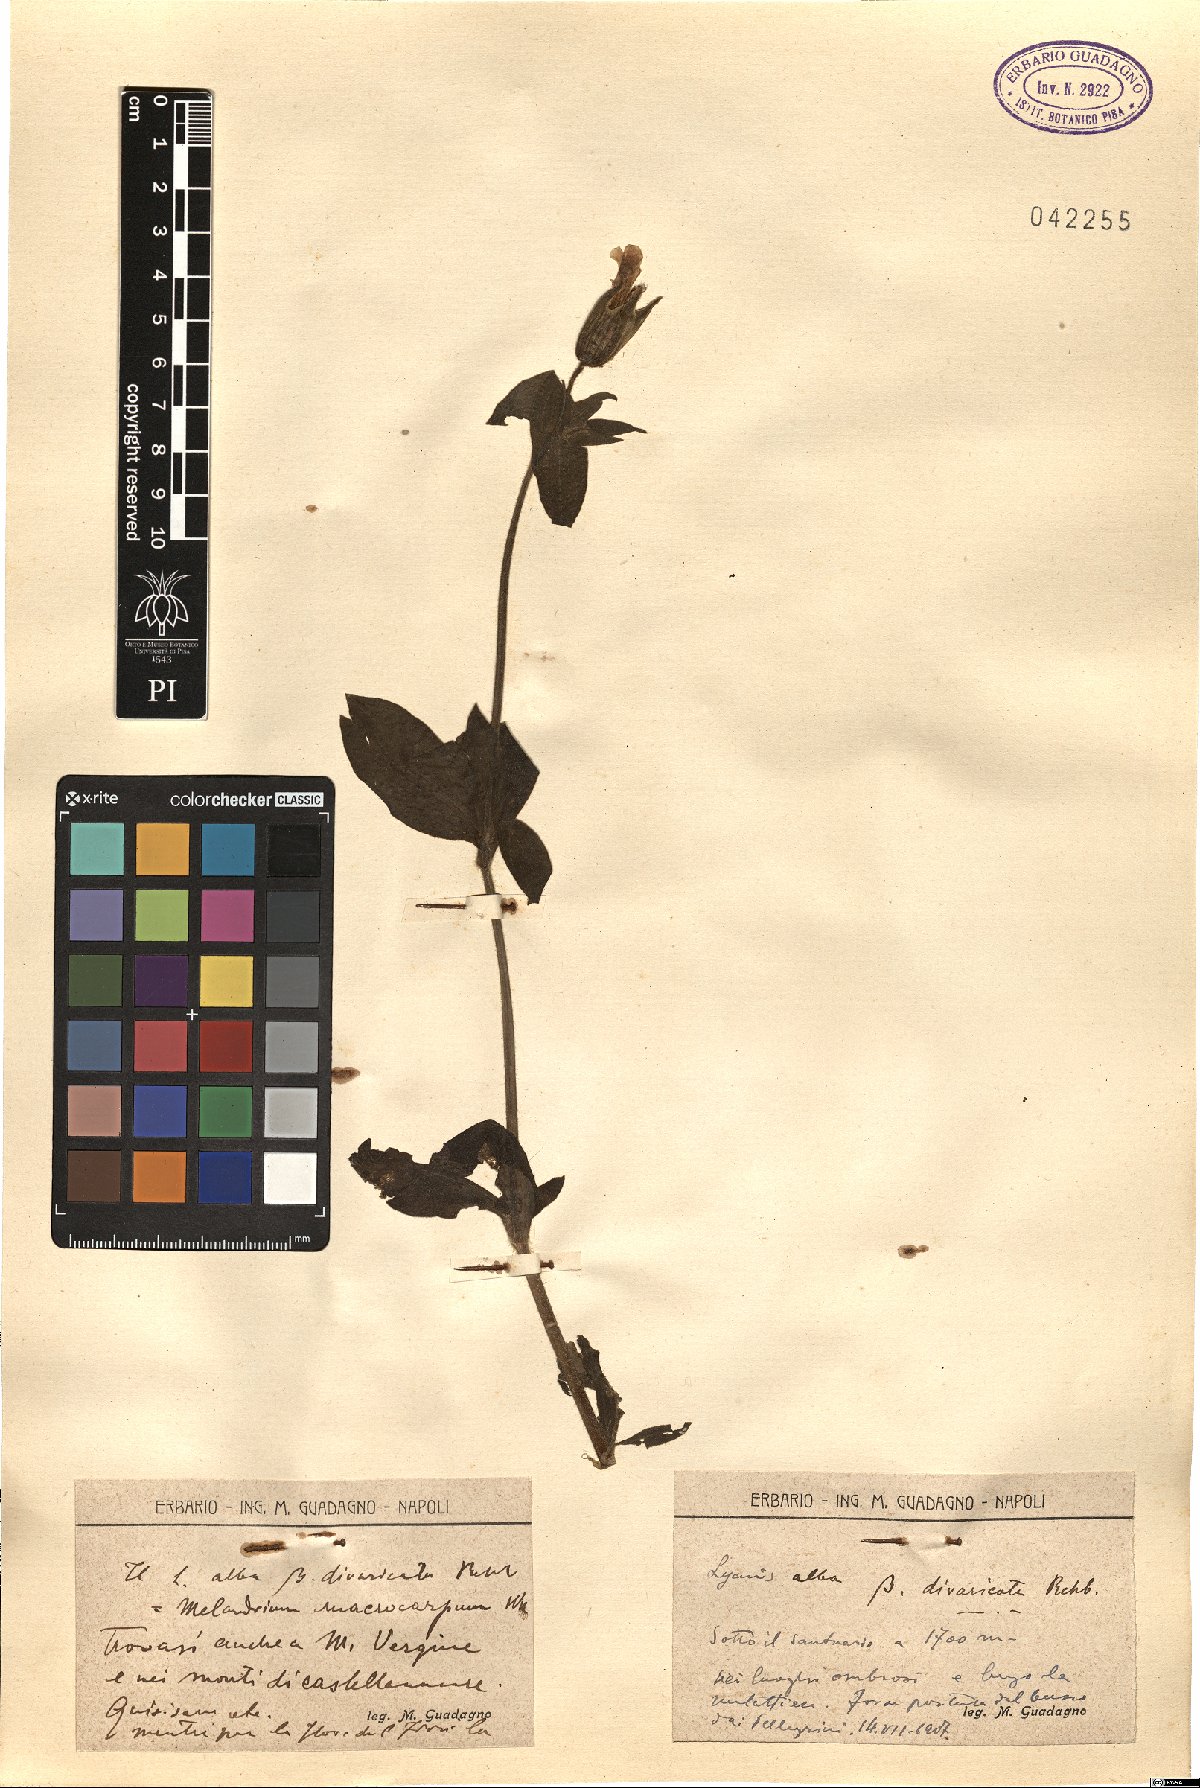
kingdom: Plantae
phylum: Tracheophyta
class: Magnoliopsida
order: Caryophyllales
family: Caryophyllaceae
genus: Silene
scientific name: Silene latifolia
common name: White campion
